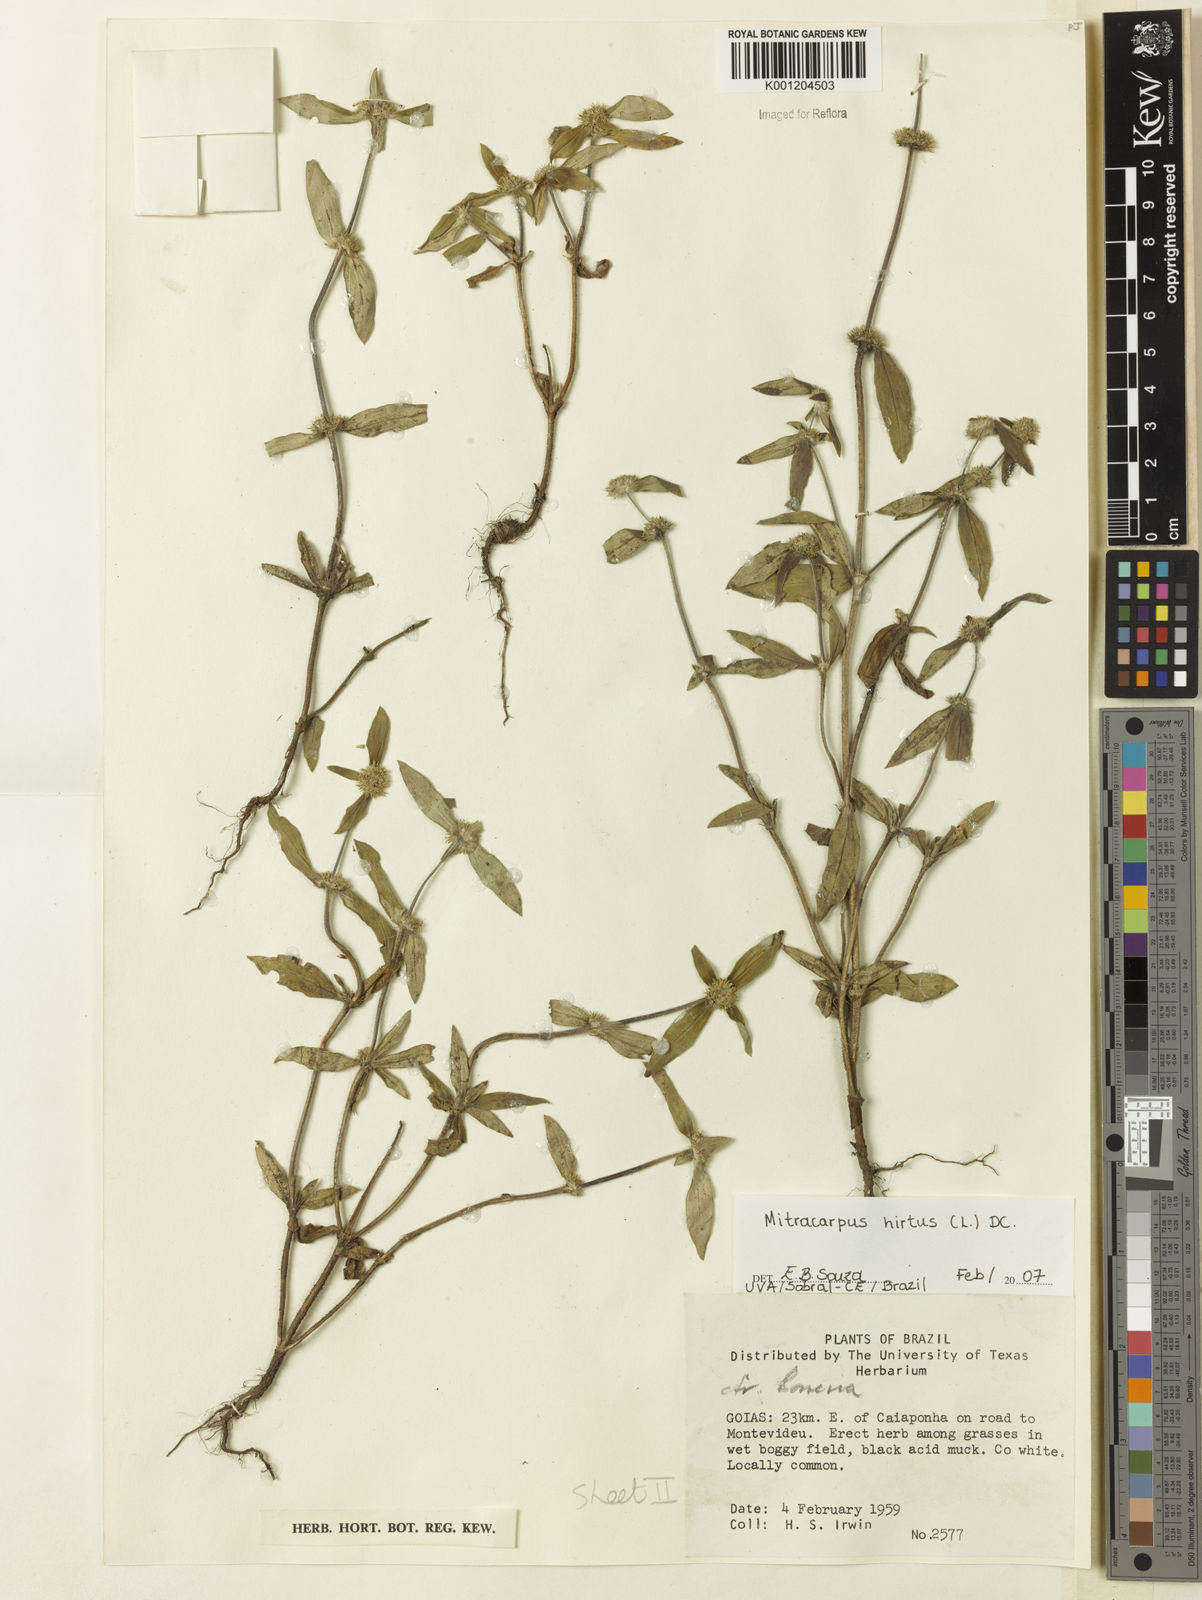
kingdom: Plantae
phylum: Tracheophyta
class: Magnoliopsida
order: Gentianales
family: Rubiaceae
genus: Mitracarpus
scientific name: Mitracarpus hirtus
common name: Tropical girdlepod
